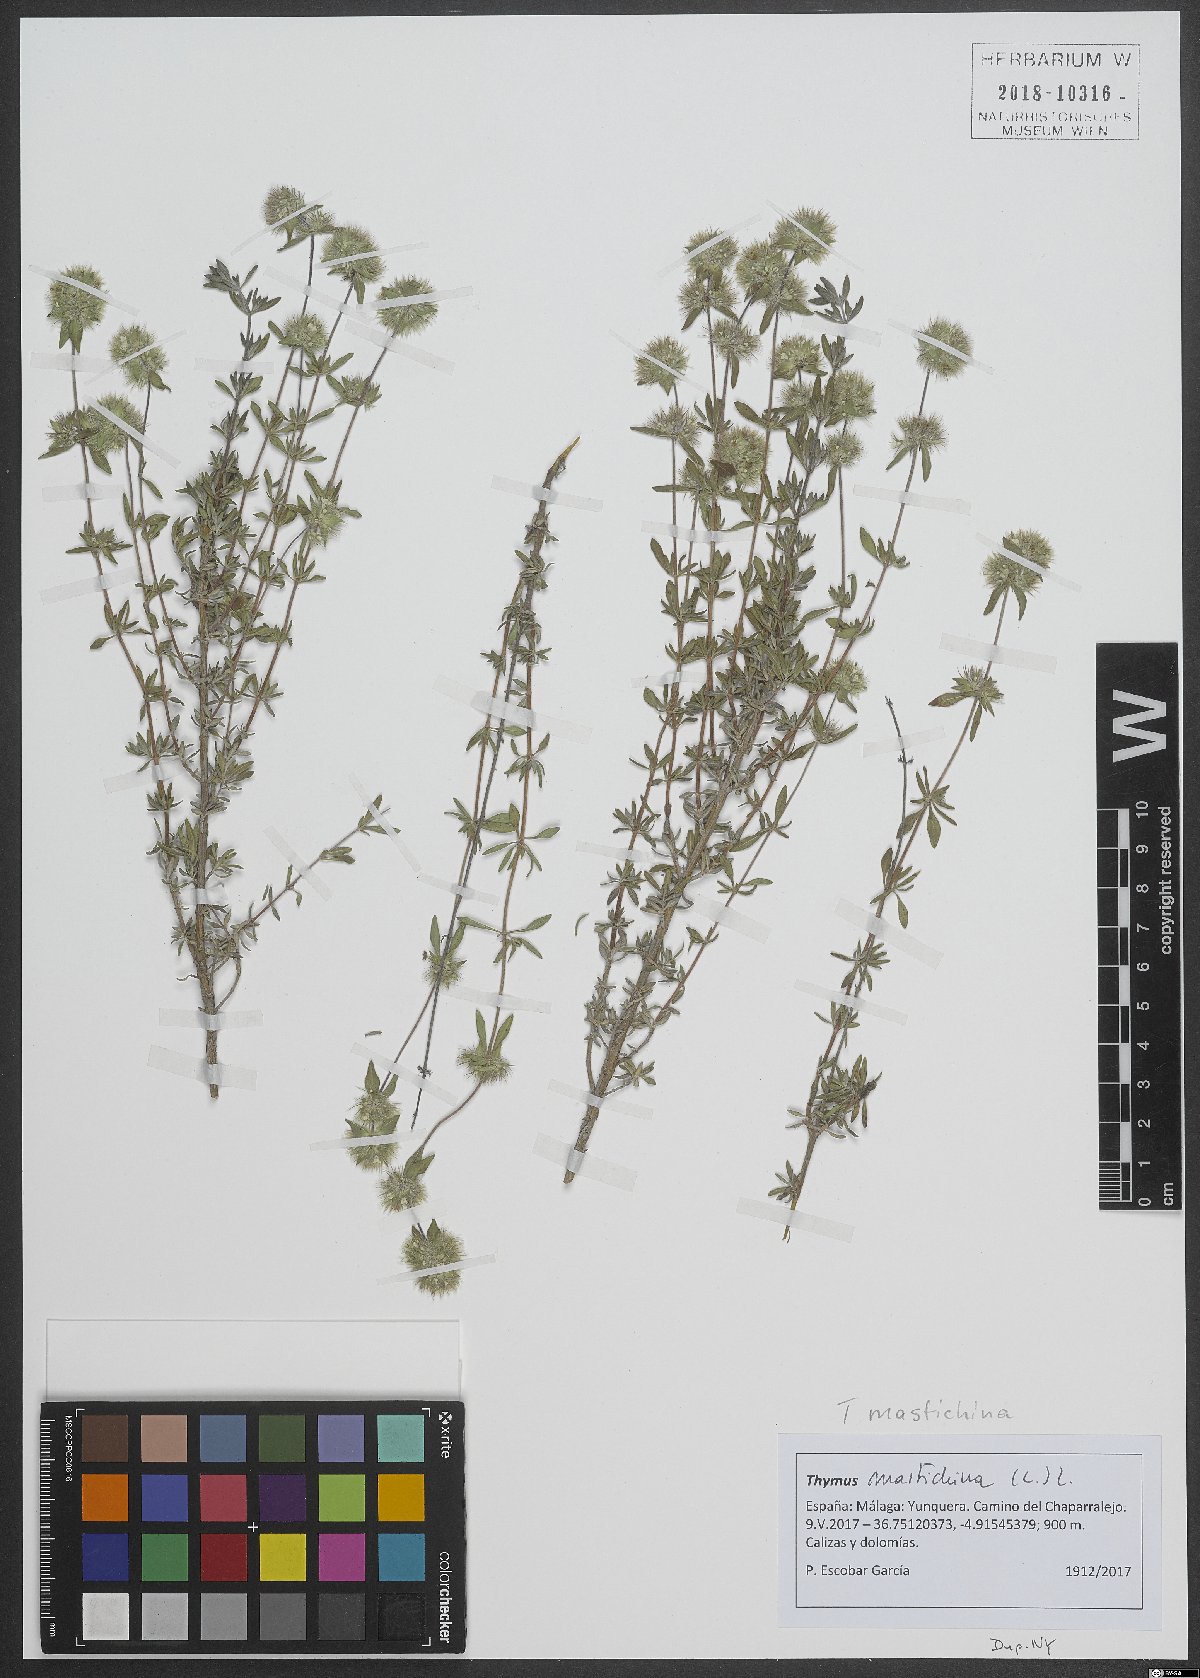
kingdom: Plantae
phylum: Tracheophyta
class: Magnoliopsida
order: Lamiales
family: Lamiaceae
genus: Thymus
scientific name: Thymus mastichina
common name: Mastic thyme
